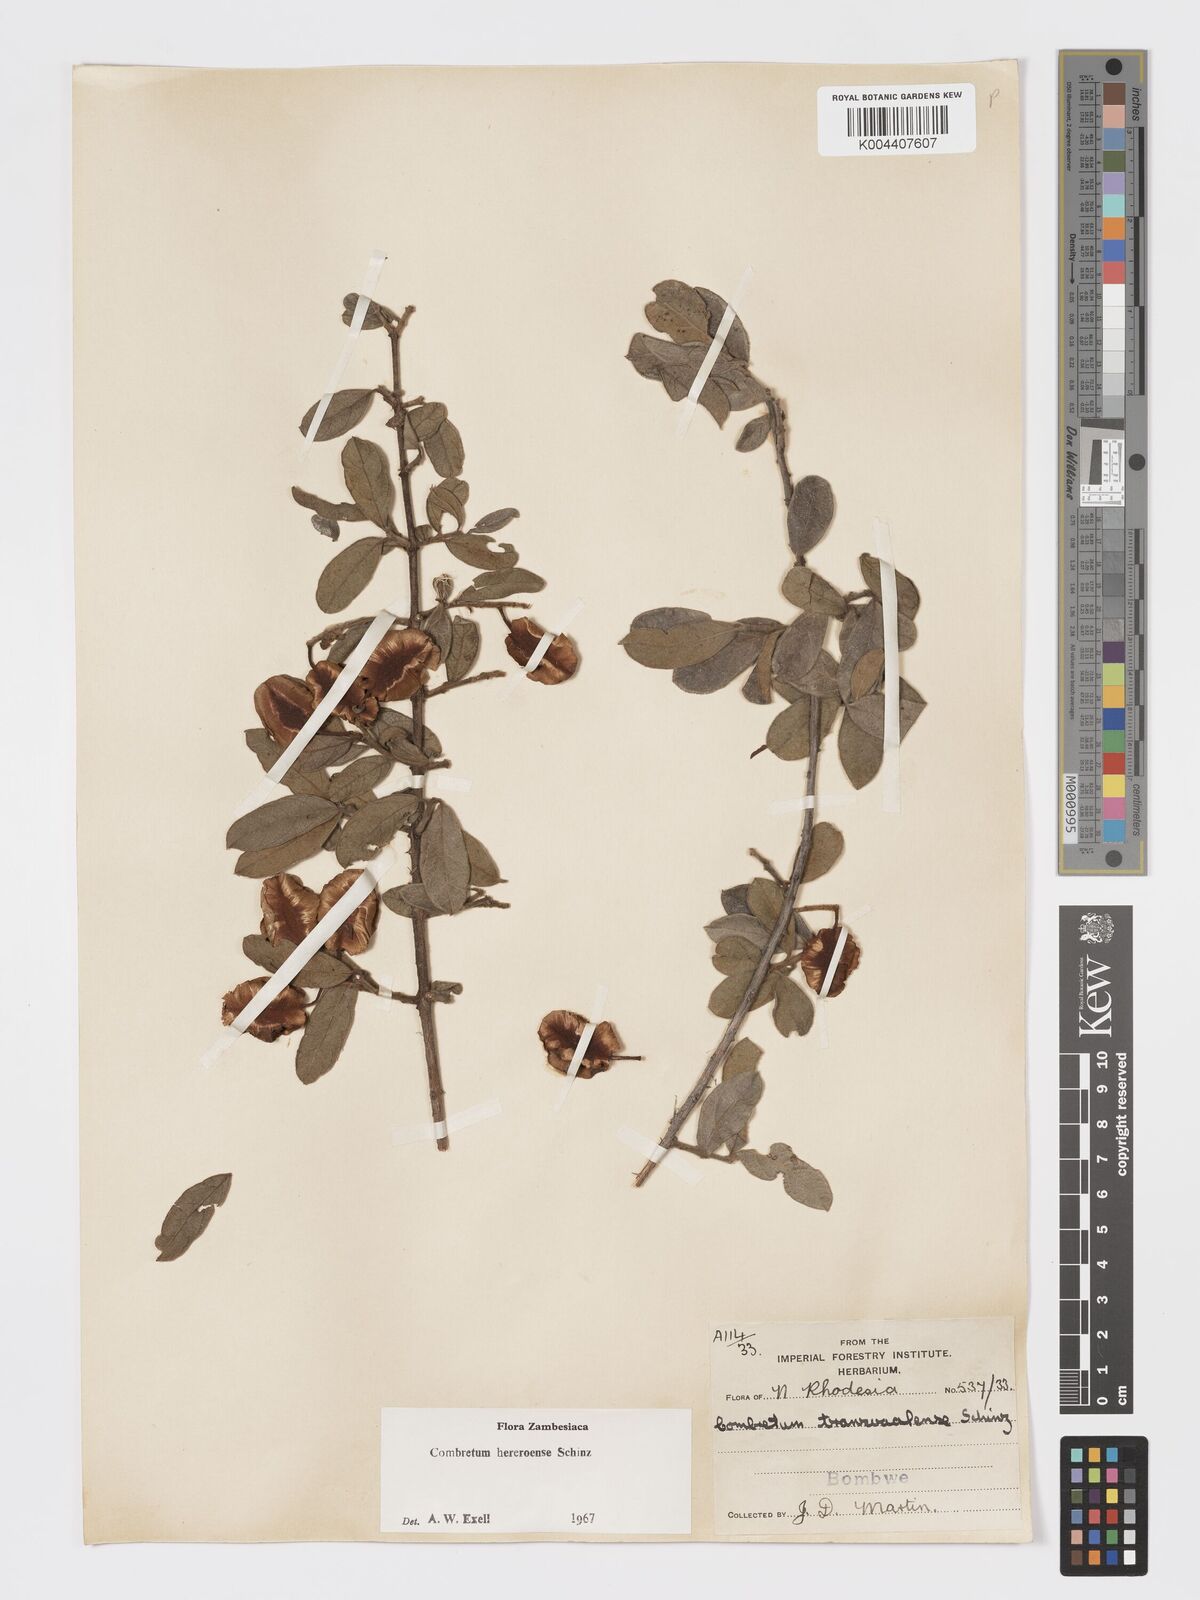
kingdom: Plantae
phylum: Tracheophyta
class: Magnoliopsida
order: Myrtales
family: Combretaceae
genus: Combretum
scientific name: Combretum hereroense
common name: Russet bushwillow
